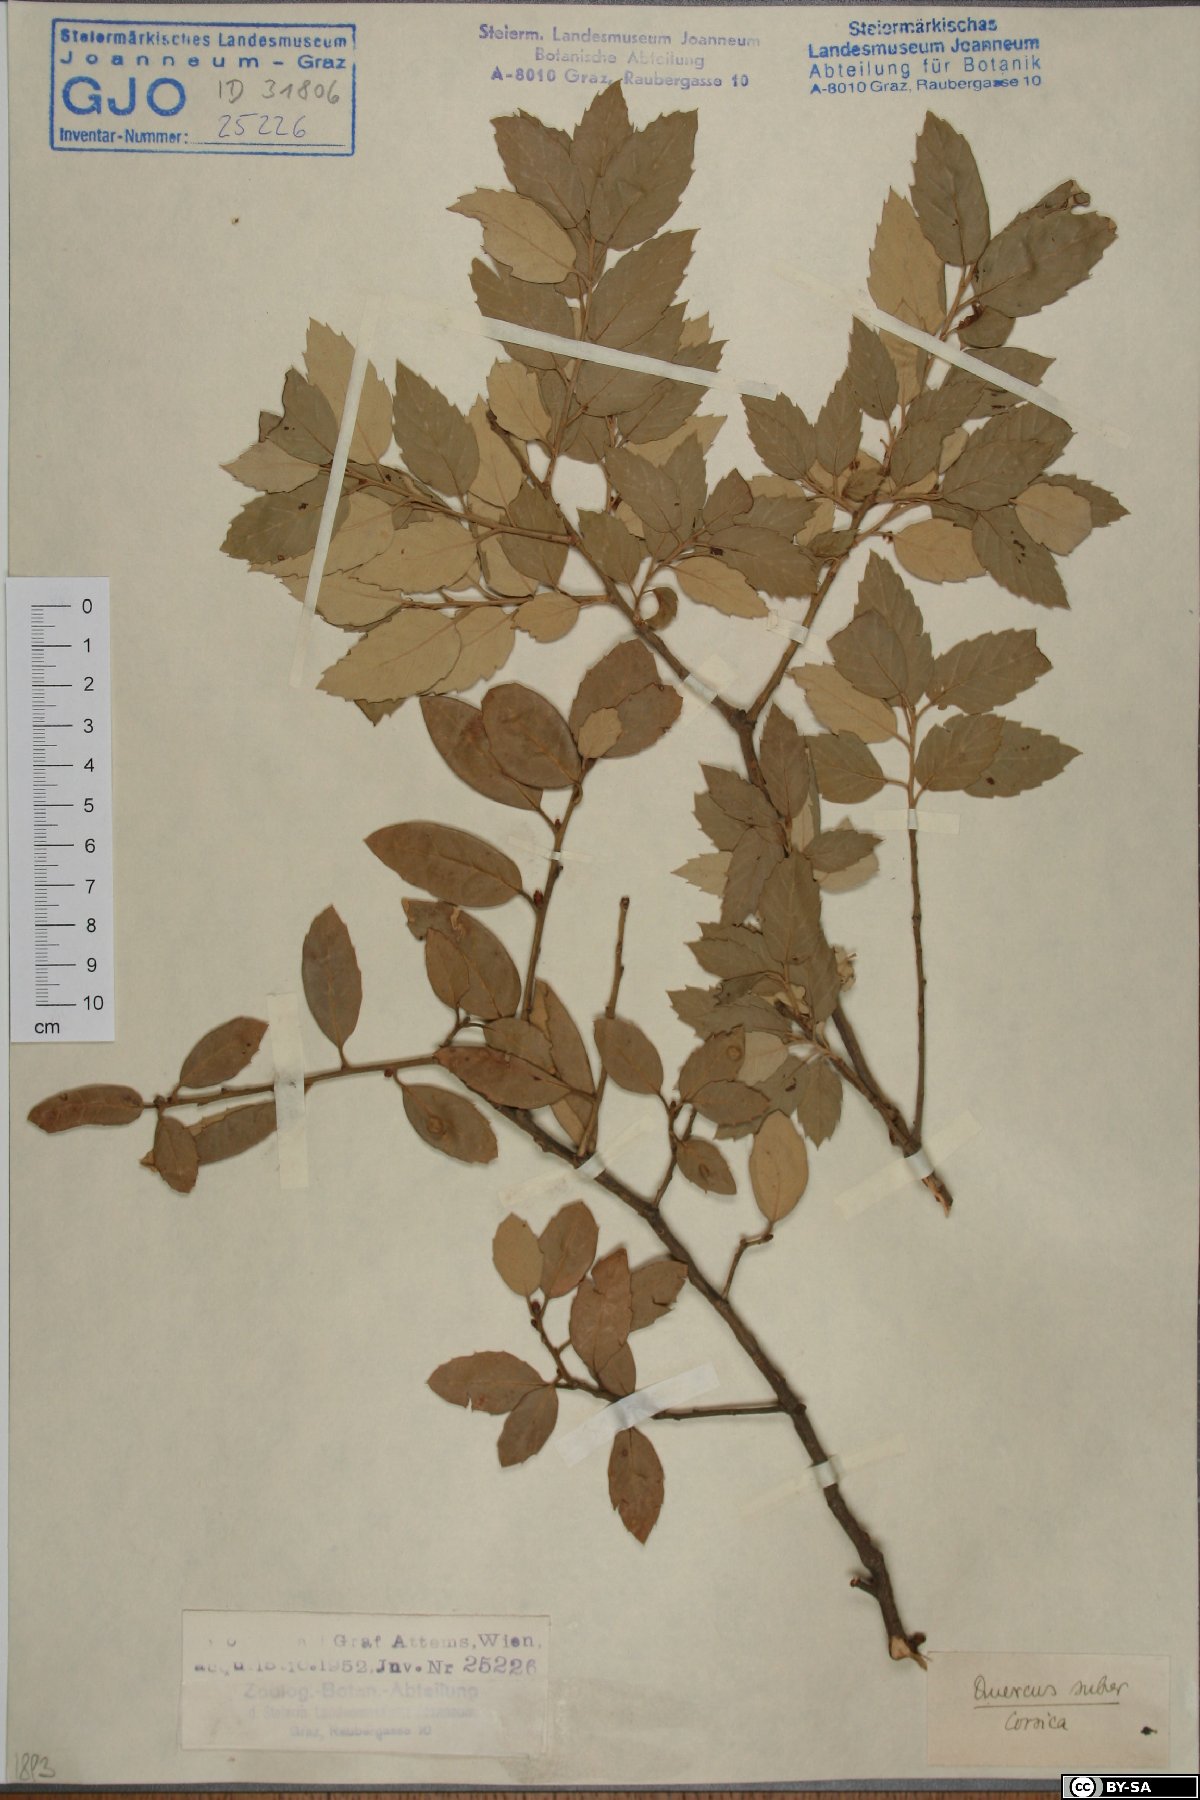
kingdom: Plantae
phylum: Tracheophyta
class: Magnoliopsida
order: Fagales
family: Fagaceae
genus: Quercus
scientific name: Quercus suber
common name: Cork oak
